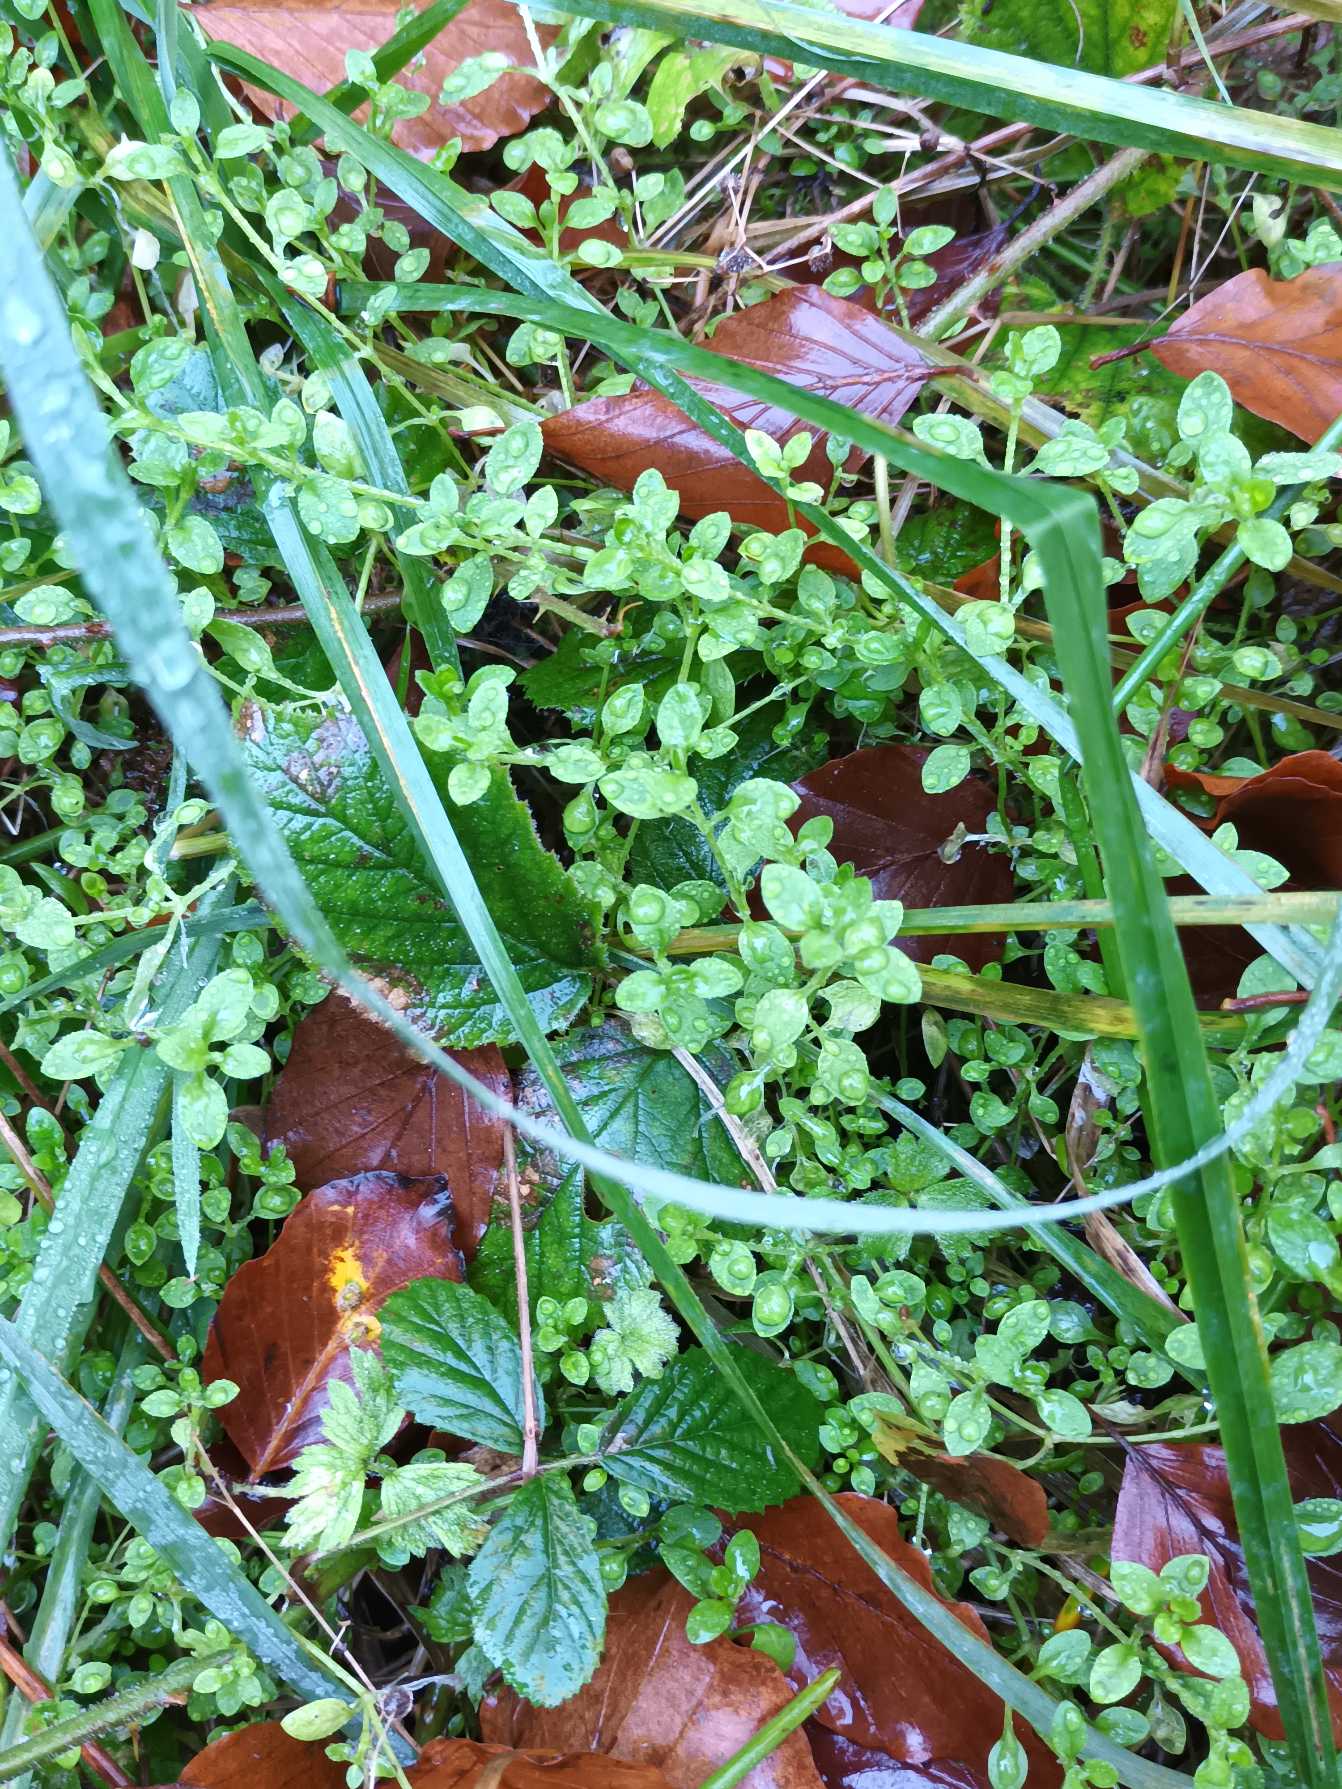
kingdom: Plantae
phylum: Tracheophyta
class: Magnoliopsida
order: Caryophyllales
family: Caryophyllaceae
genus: Stellaria
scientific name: Stellaria alsine
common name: Sump-fladstjerne
